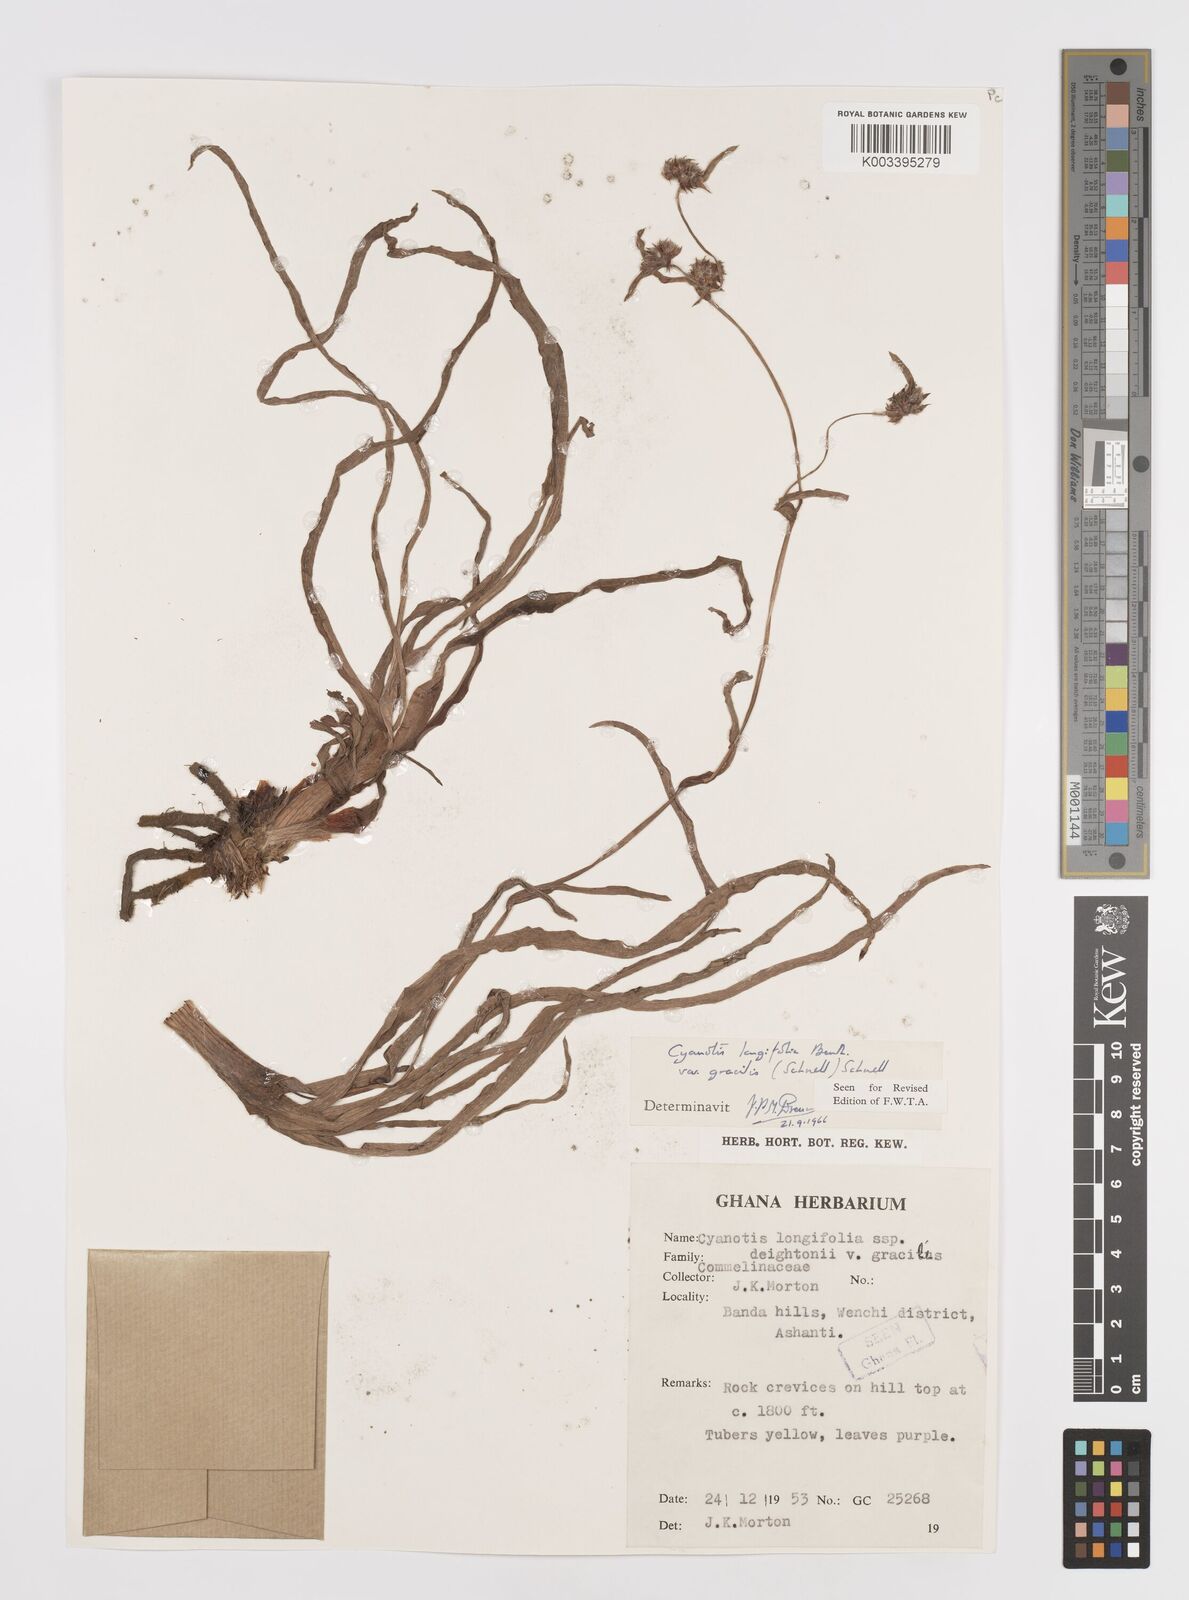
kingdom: Plantae
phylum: Tracheophyta
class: Liliopsida
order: Commelinales
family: Commelinaceae
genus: Cyanotis
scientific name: Cyanotis longifolia
